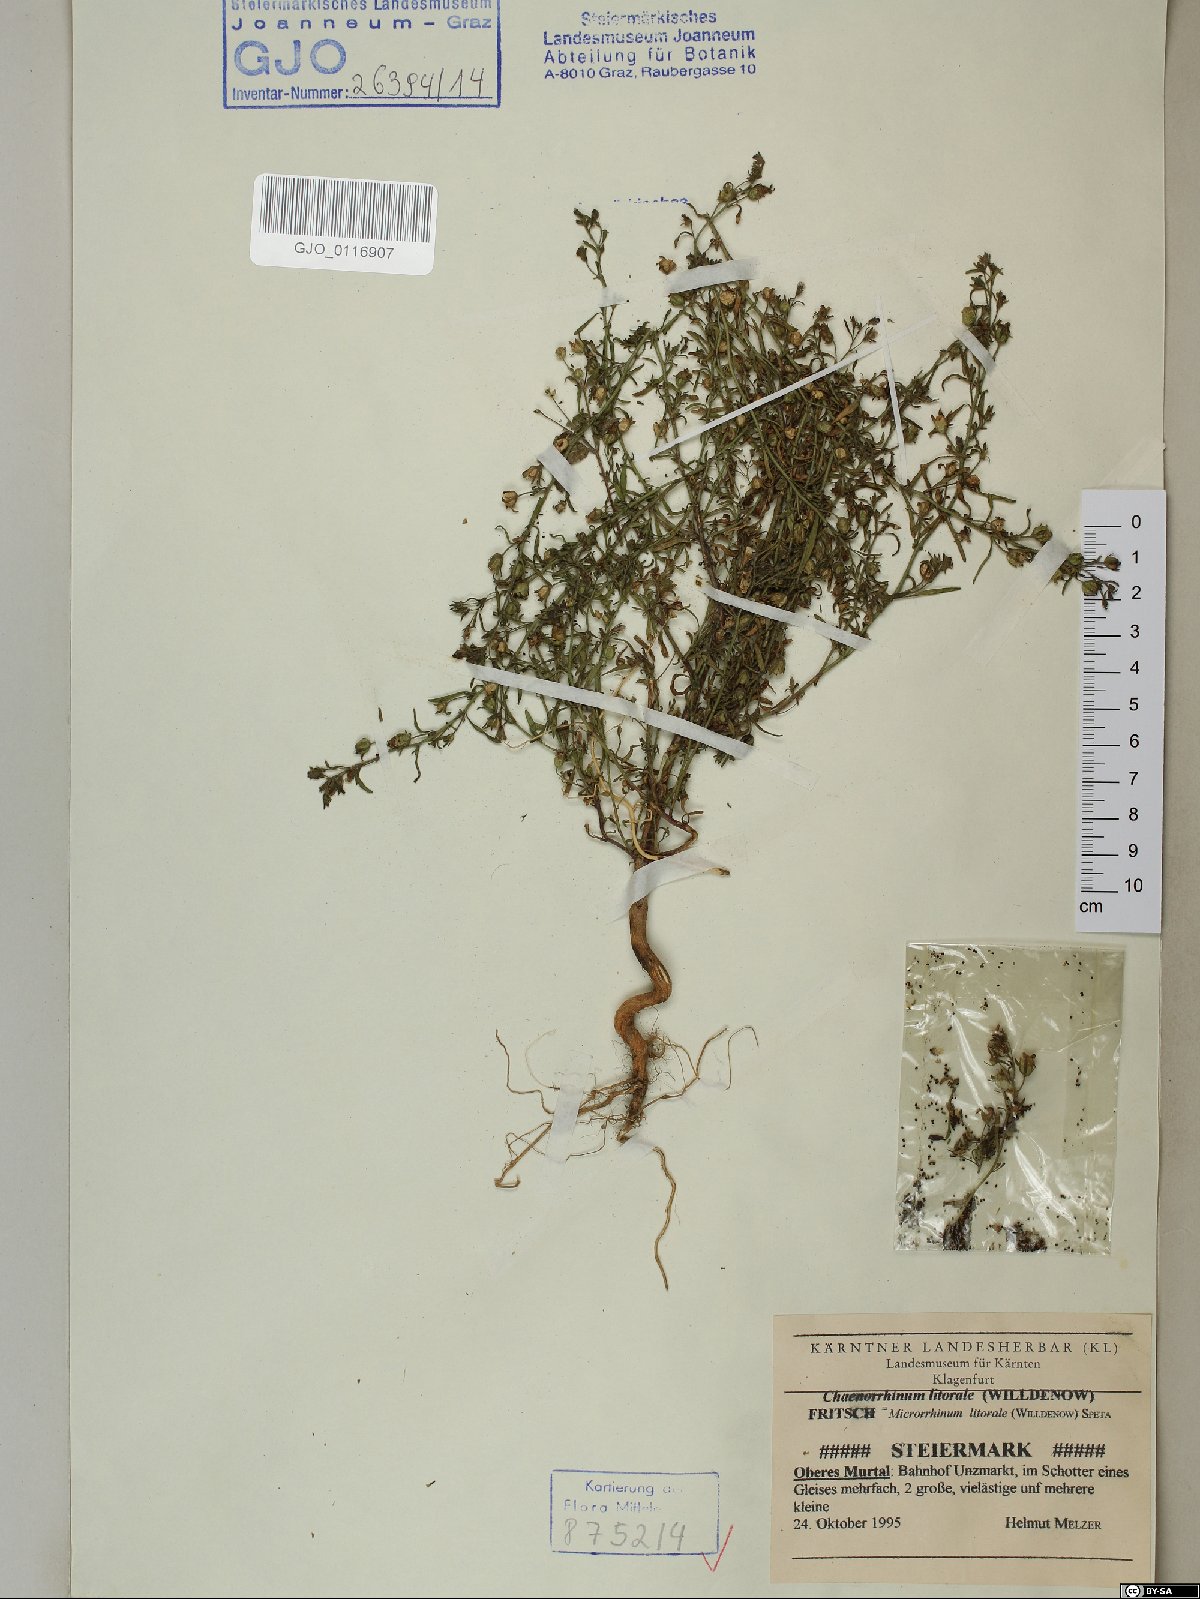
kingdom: Plantae
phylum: Tracheophyta
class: Magnoliopsida
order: Lamiales
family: Plantaginaceae
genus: Chaenorhinum
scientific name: Chaenorhinum litorale
